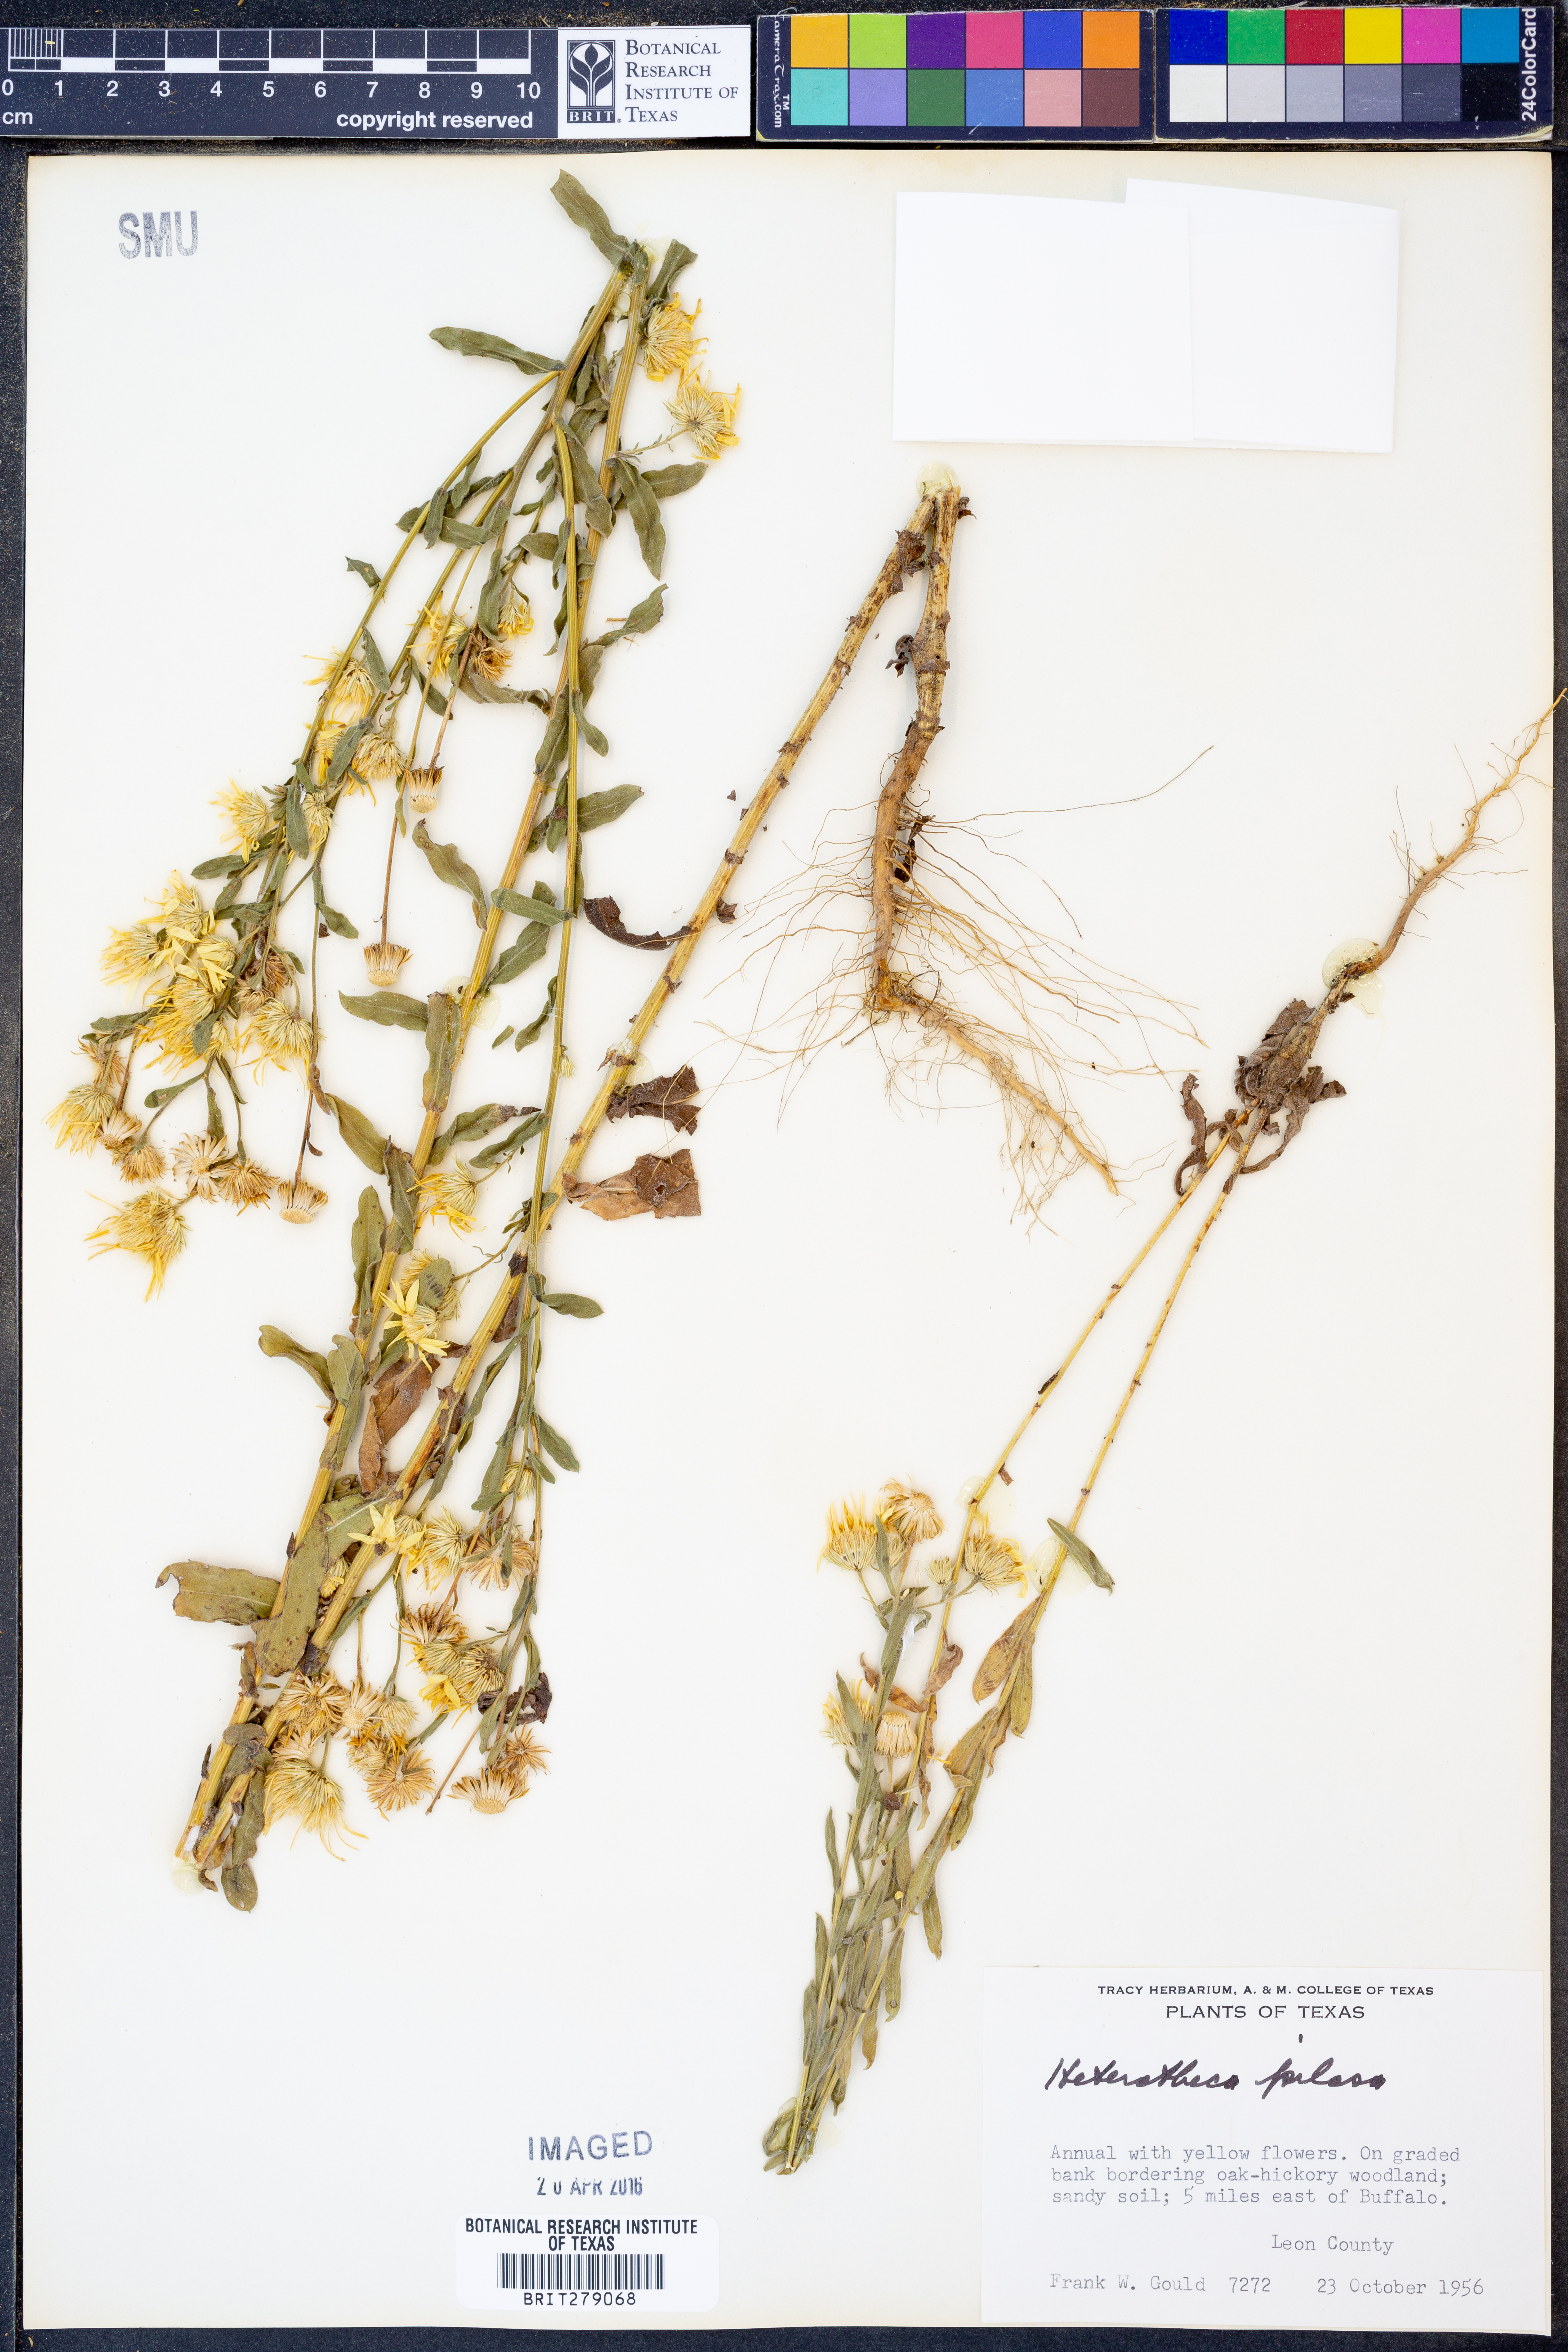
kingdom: Plantae
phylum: Tracheophyta
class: Magnoliopsida
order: Asterales
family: Asteraceae
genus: Bradburia
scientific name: Bradburia pilosa
